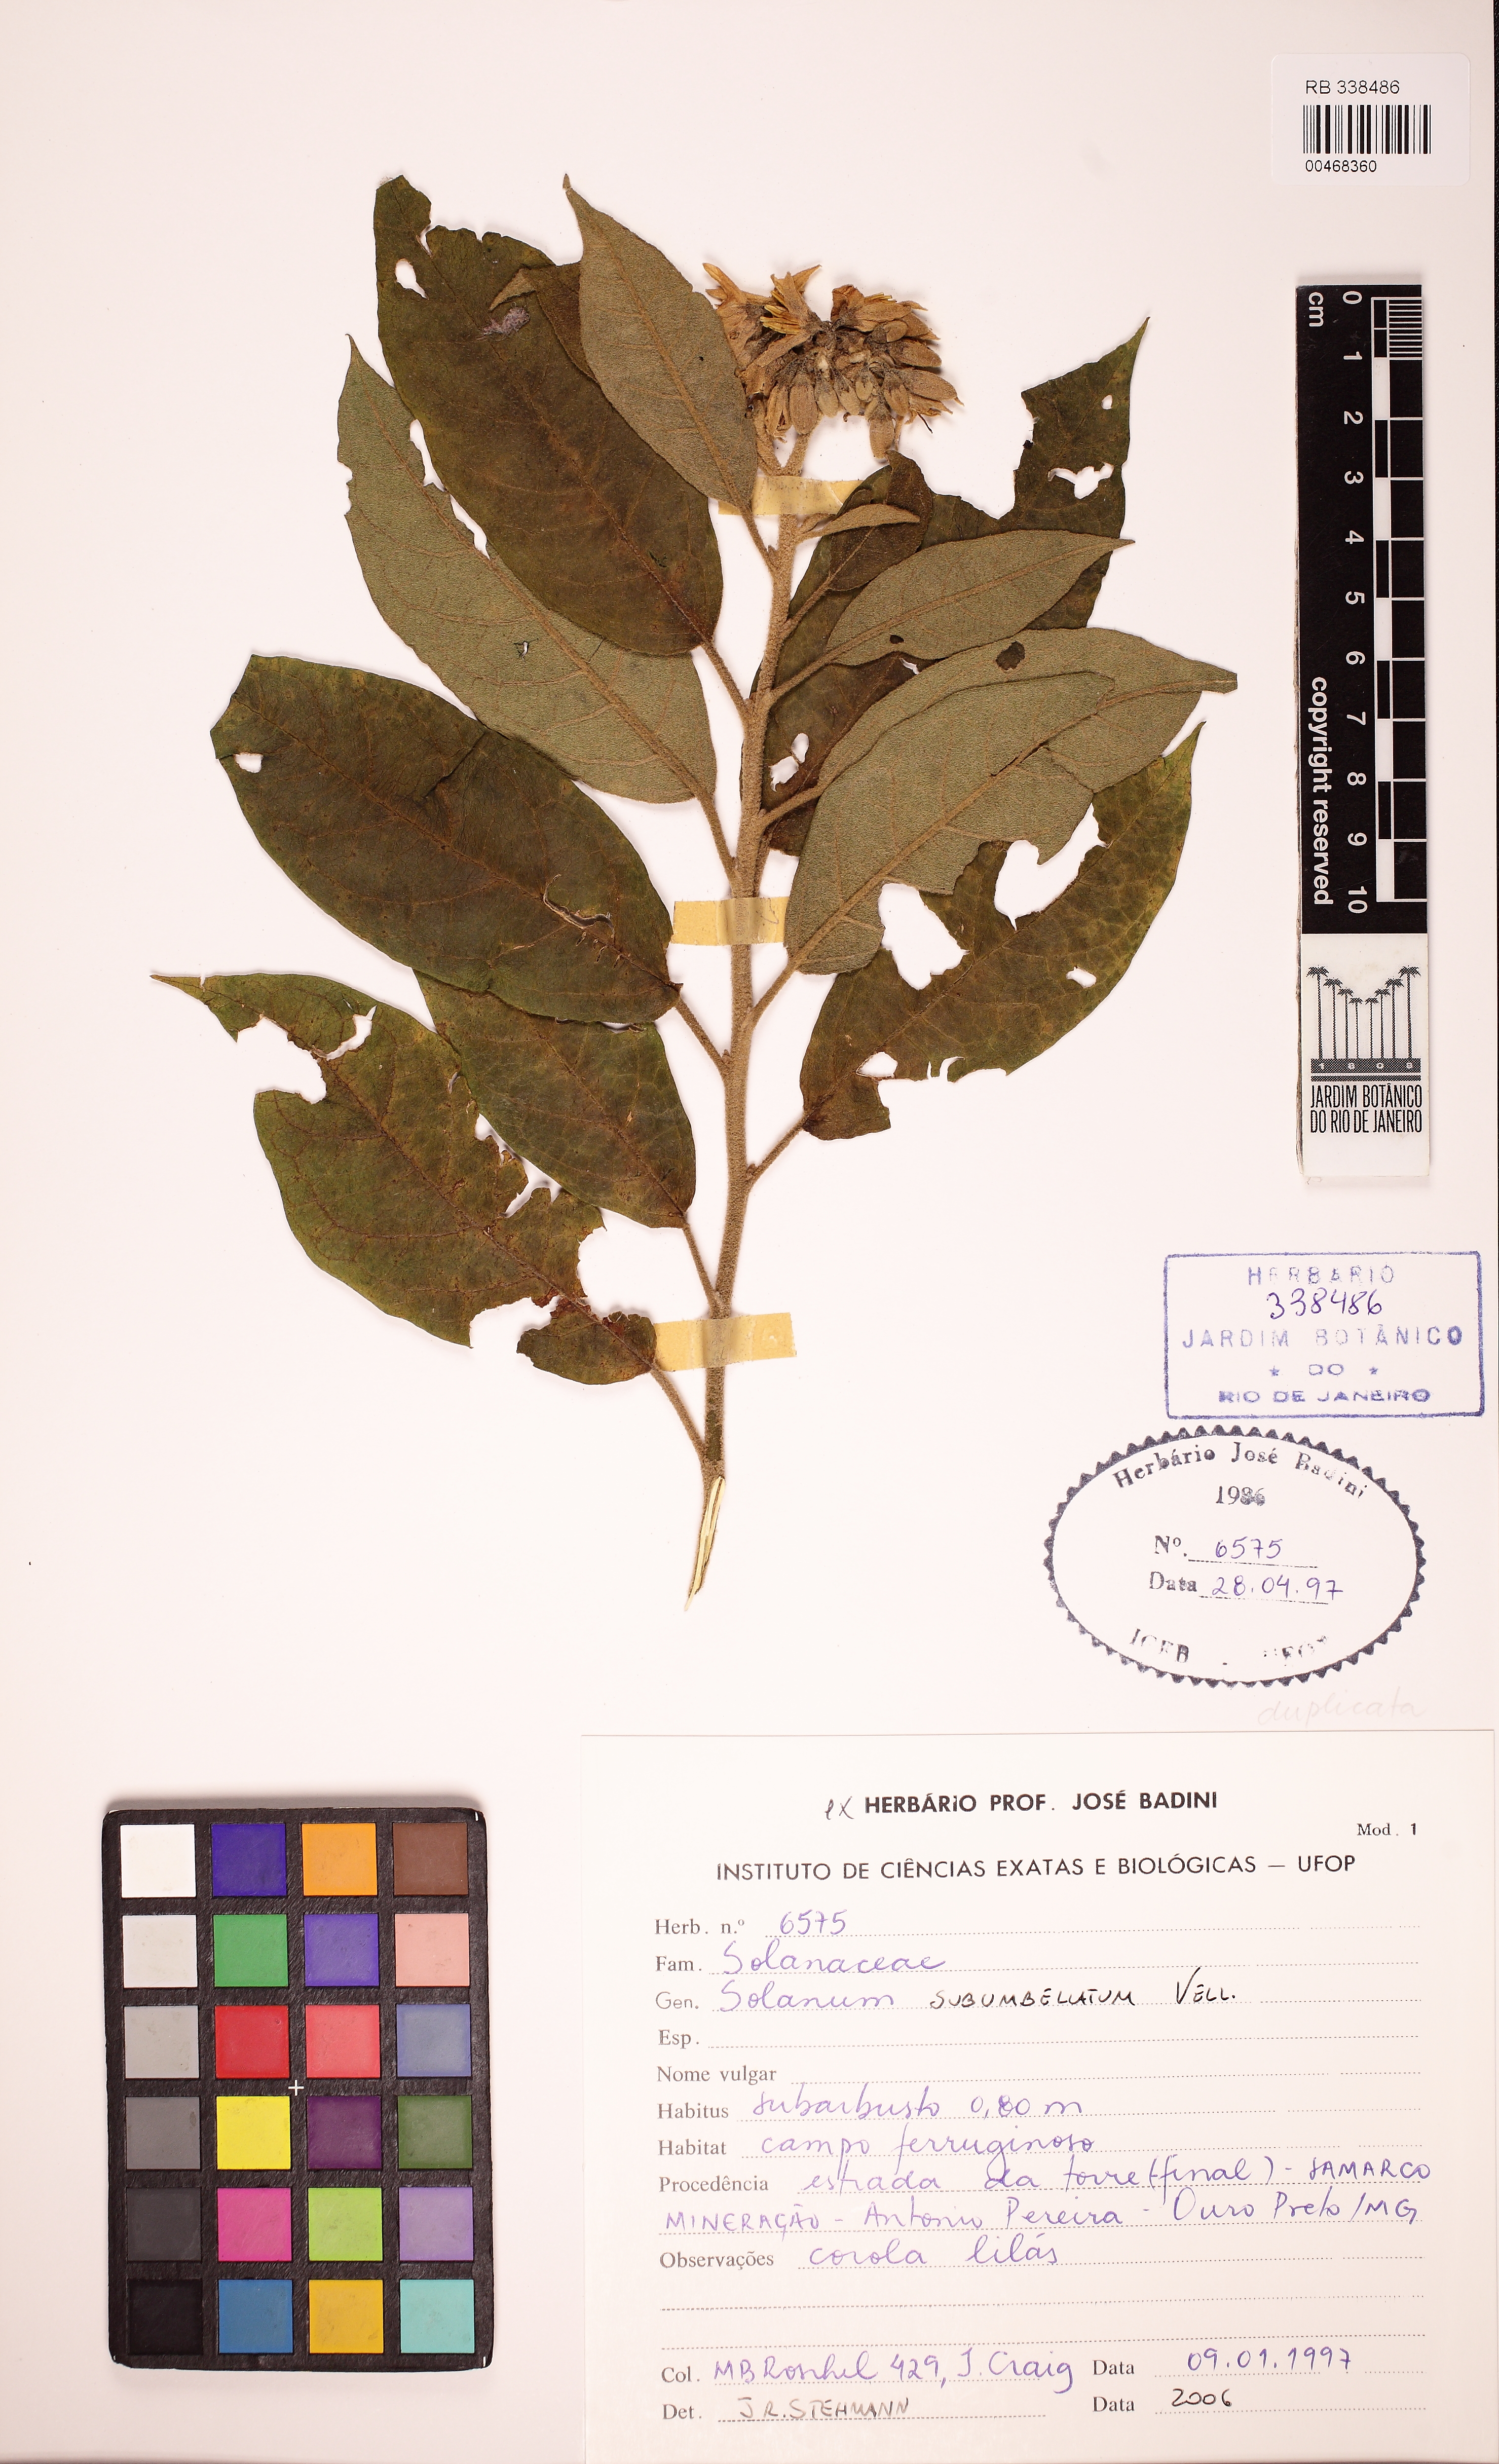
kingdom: Plantae
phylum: Tracheophyta
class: Magnoliopsida
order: Solanales
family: Solanaceae
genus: Solanum
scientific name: Solanum subumbellatum
